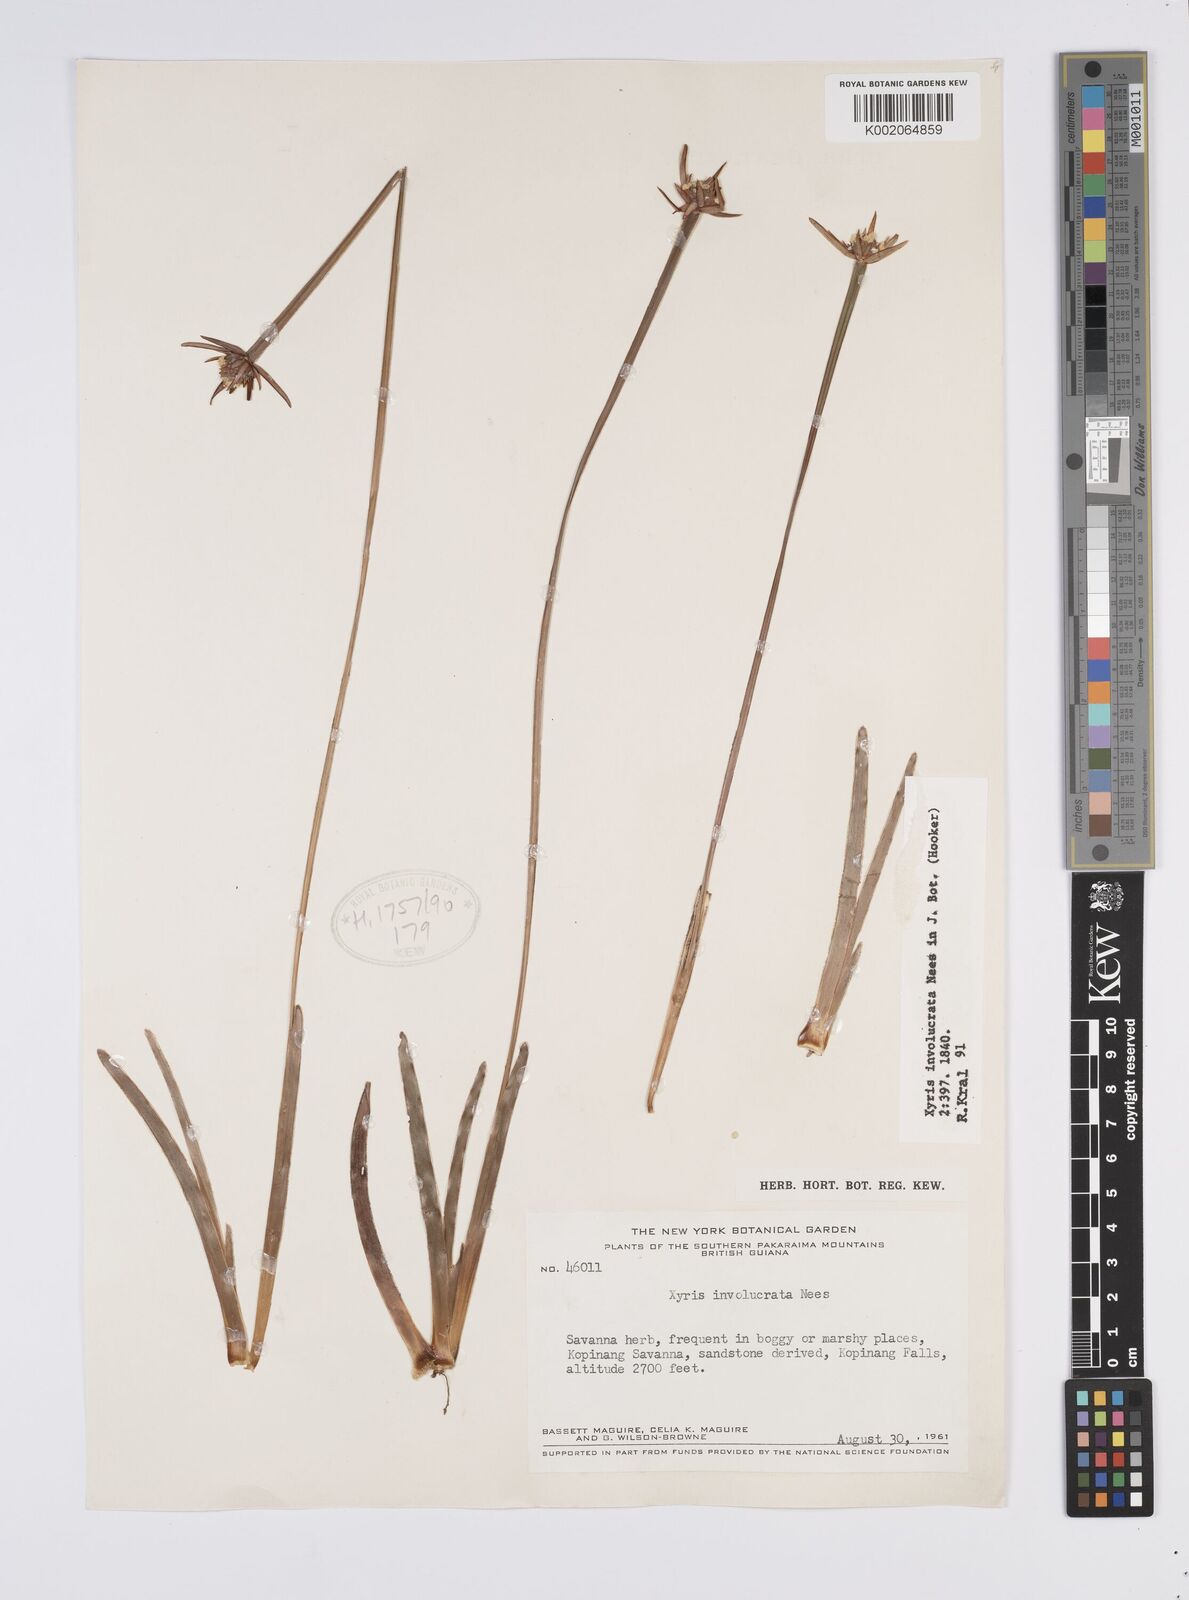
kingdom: Plantae
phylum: Tracheophyta
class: Liliopsida
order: Poales
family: Xyridaceae
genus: Xyris
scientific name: Xyris involucrata
